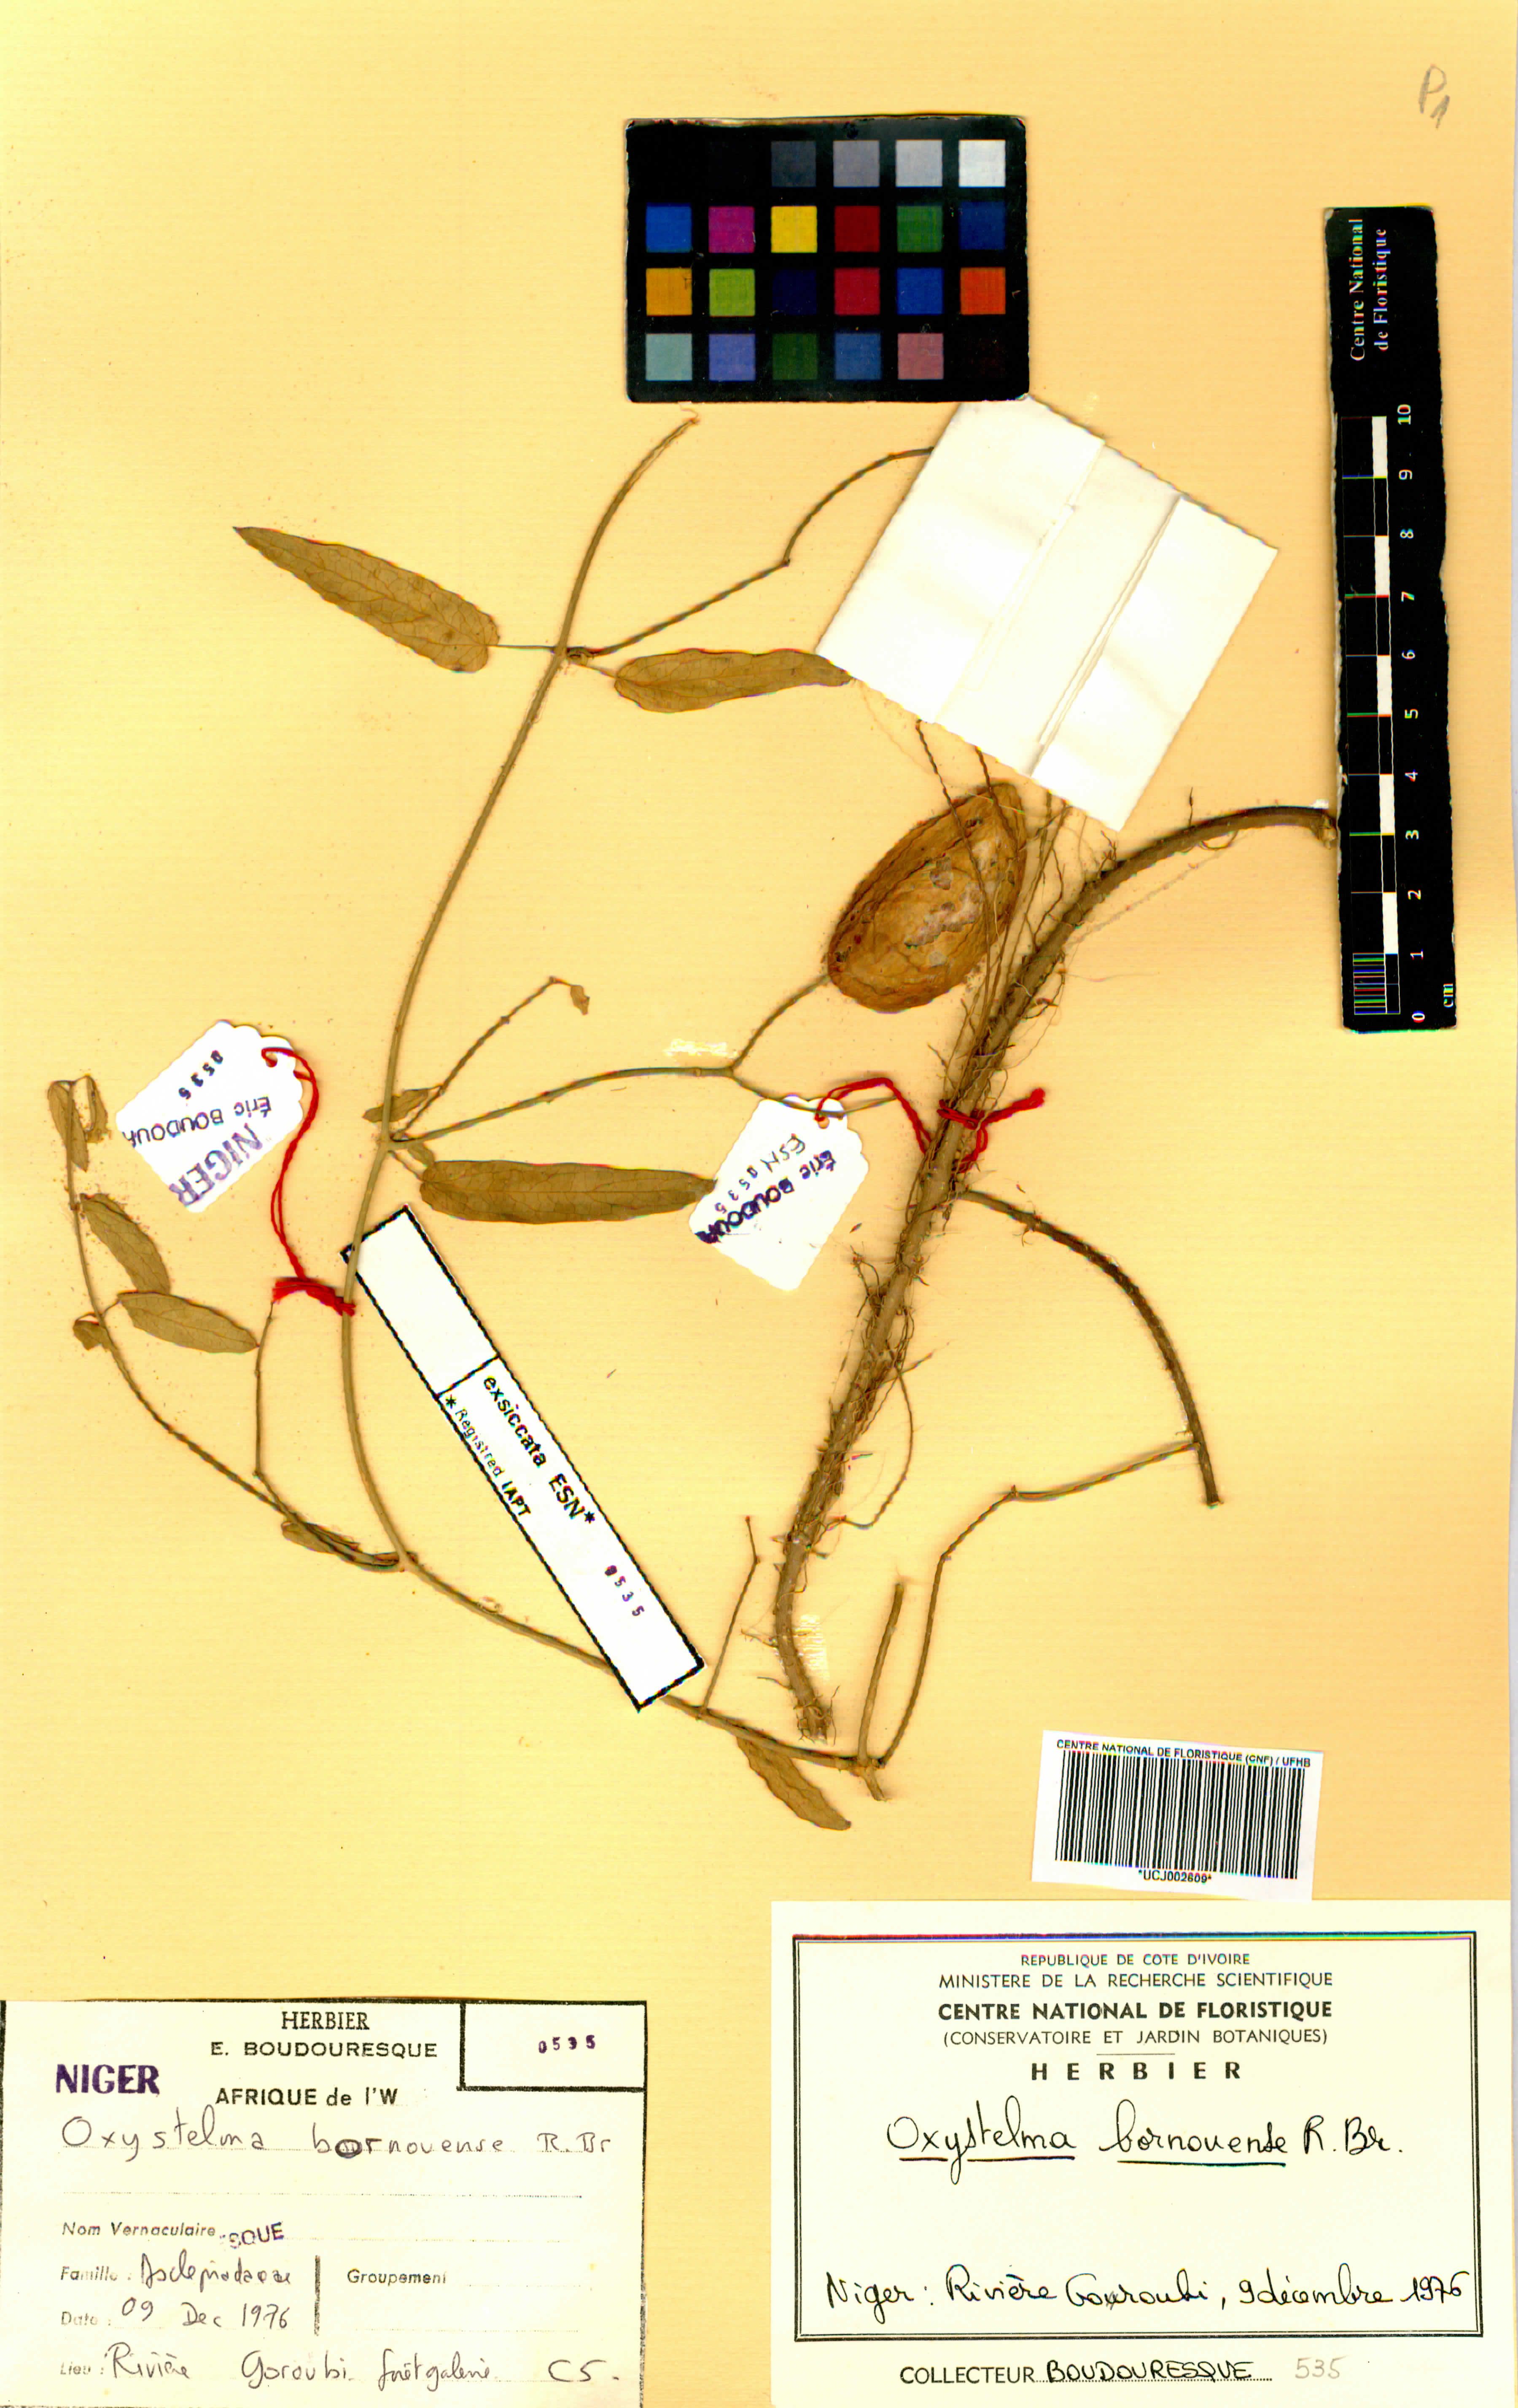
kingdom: Plantae
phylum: Tracheophyta
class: Magnoliopsida
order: Gentianales
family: Apocynaceae
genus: Oxystelma
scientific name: Oxystelma bornouense
